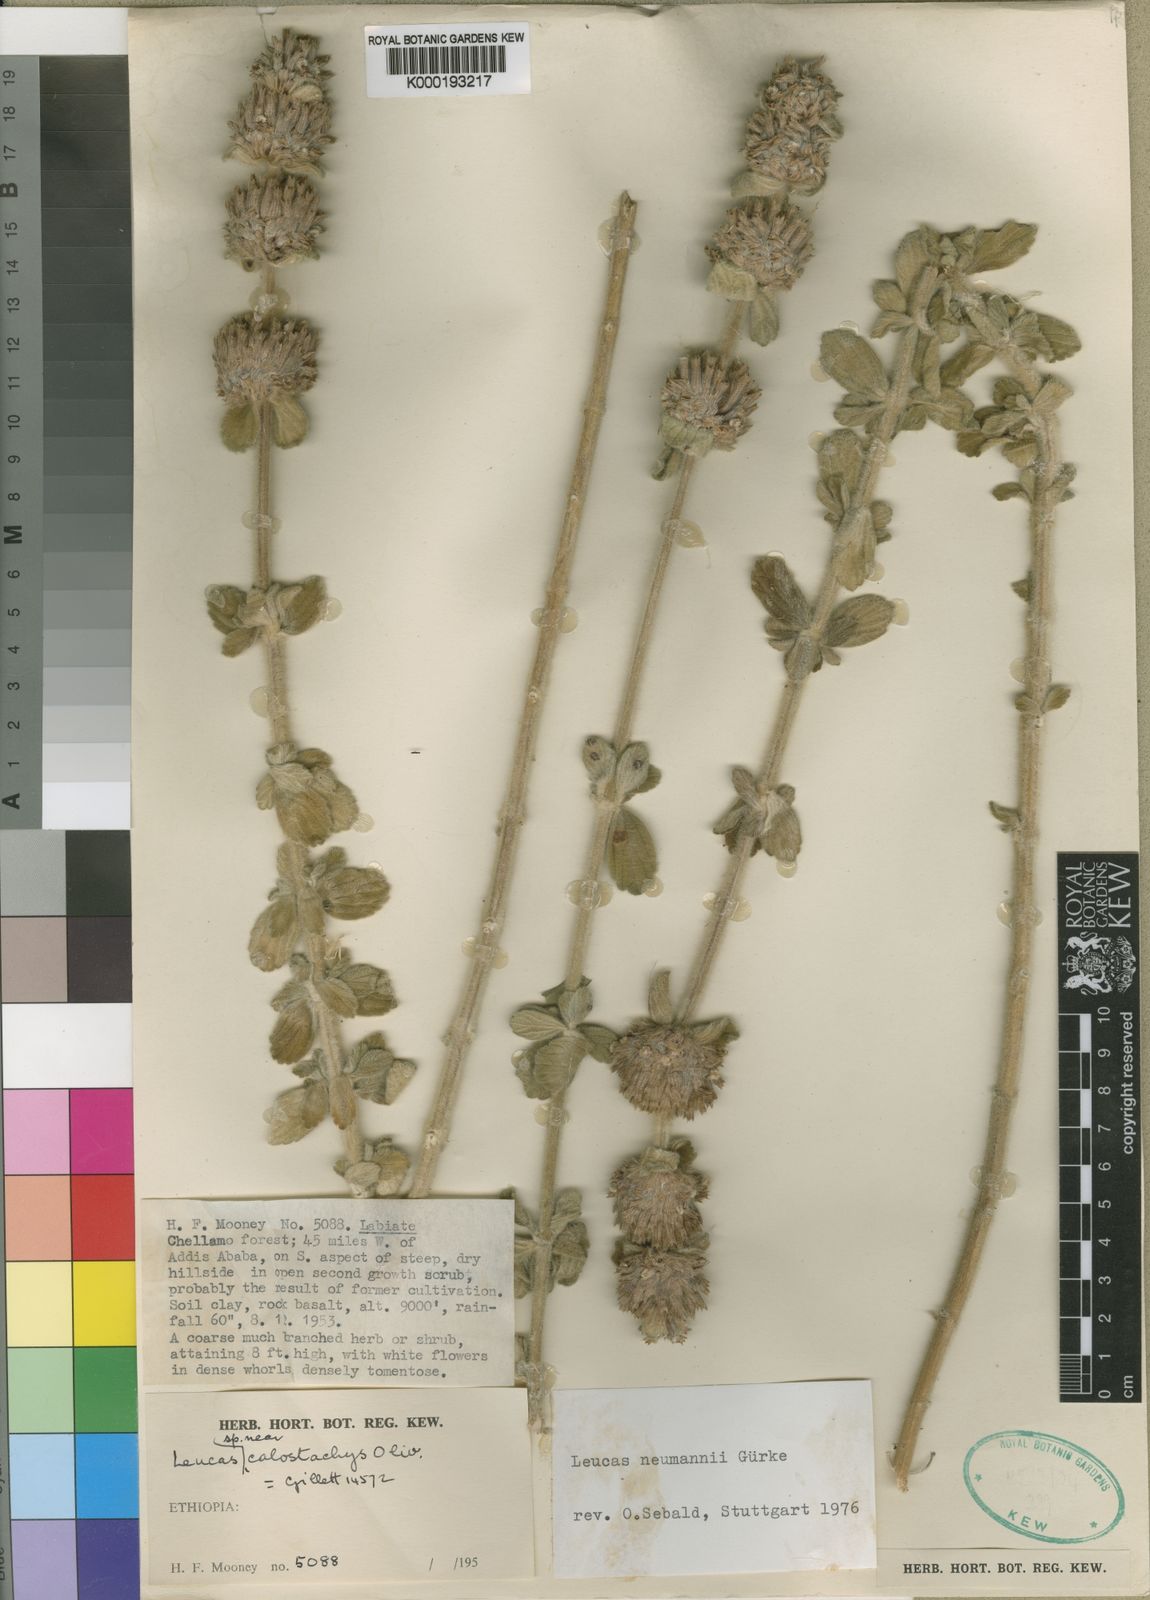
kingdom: Plantae
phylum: Tracheophyta
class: Magnoliopsida
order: Lamiales
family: Lamiaceae
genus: Leucas
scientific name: Leucas
